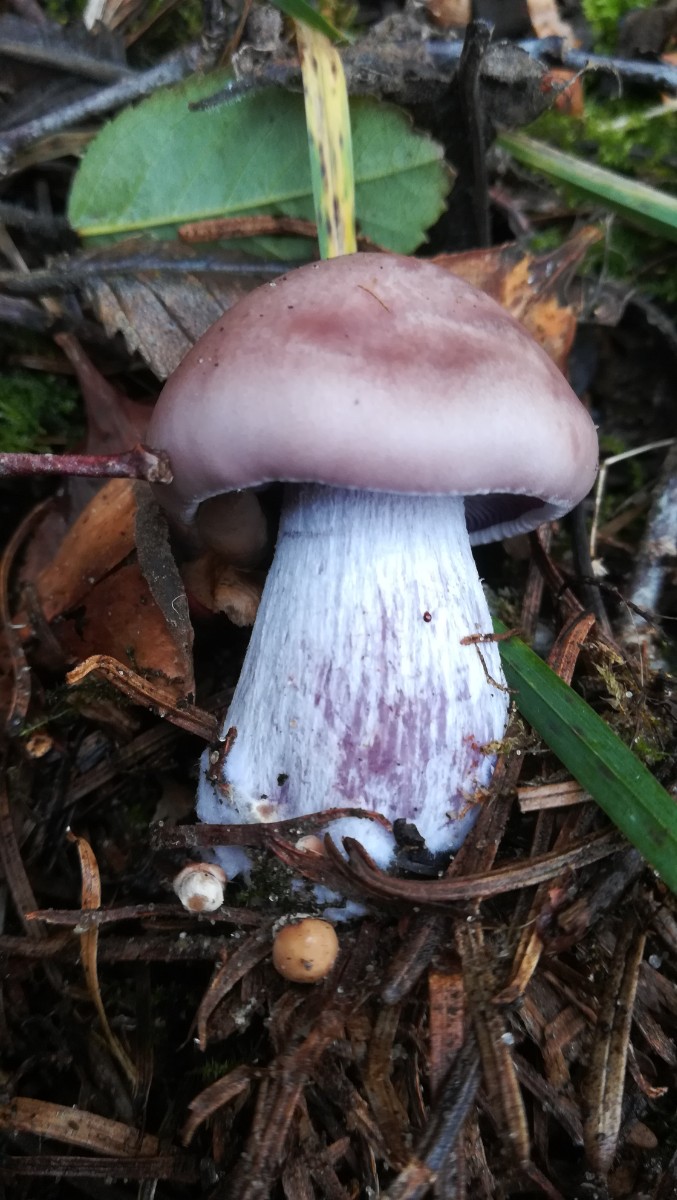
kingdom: Fungi
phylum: Basidiomycota
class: Agaricomycetes
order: Agaricales
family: Tricholomataceae
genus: Lepista
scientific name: Lepista nuda
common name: violet hekseringshat
